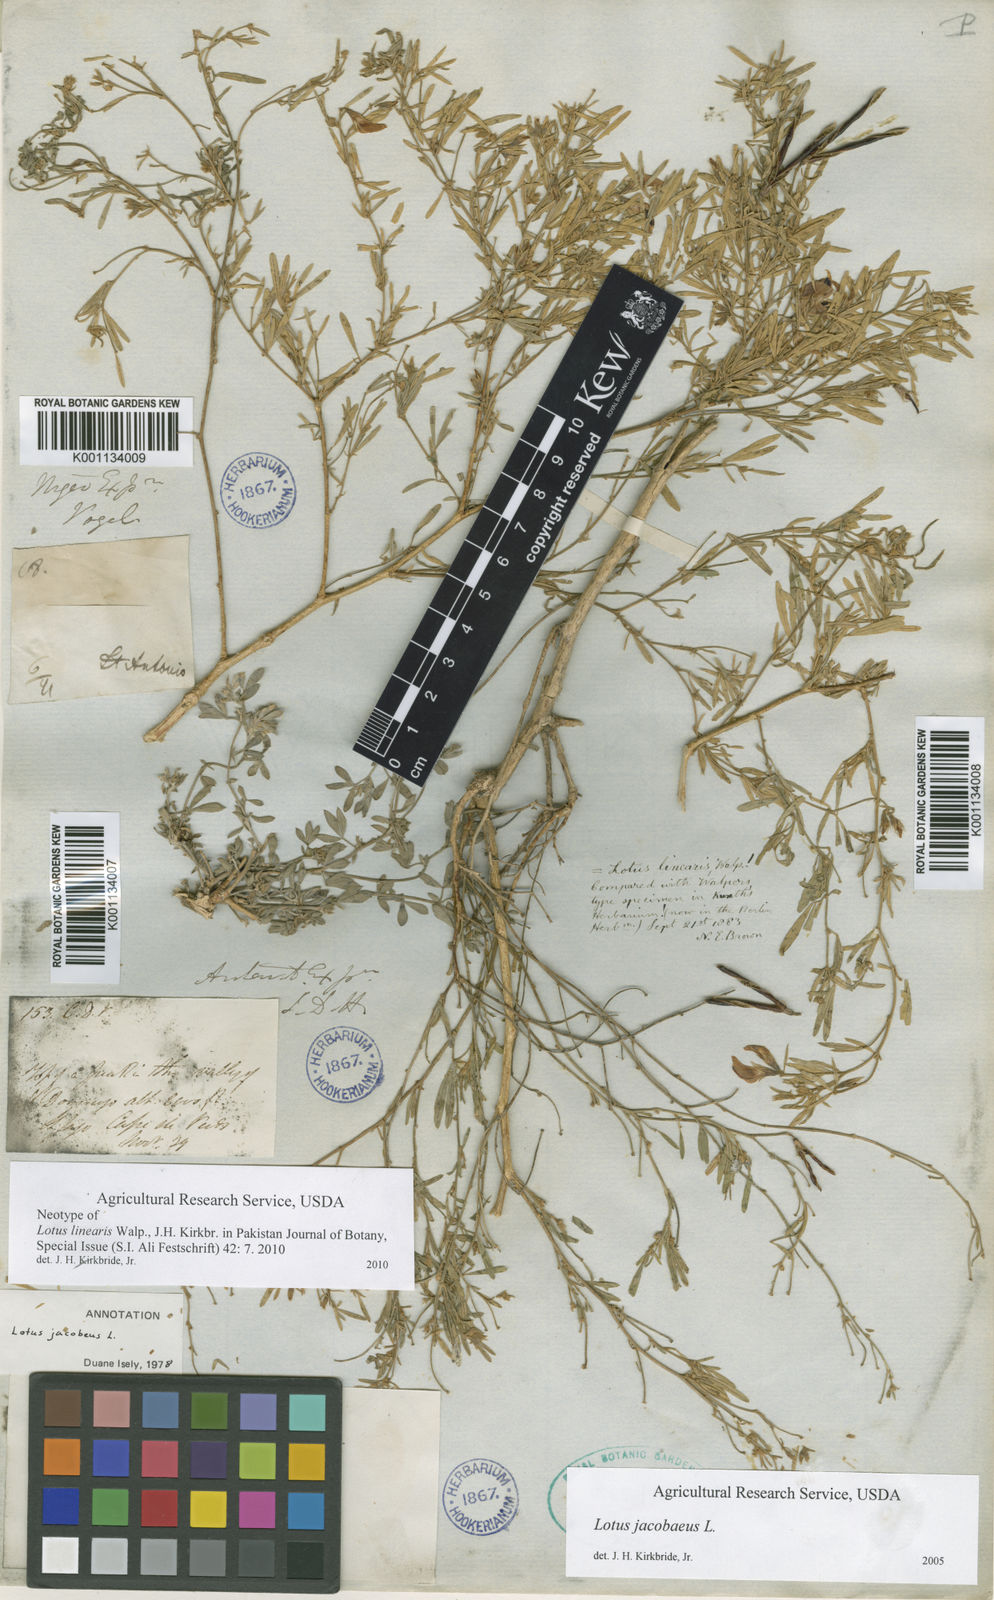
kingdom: Plantae
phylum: Tracheophyta
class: Magnoliopsida
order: Fabales
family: Fabaceae
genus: Lotus
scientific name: Lotus jacobaeus
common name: St. james's trefoil
